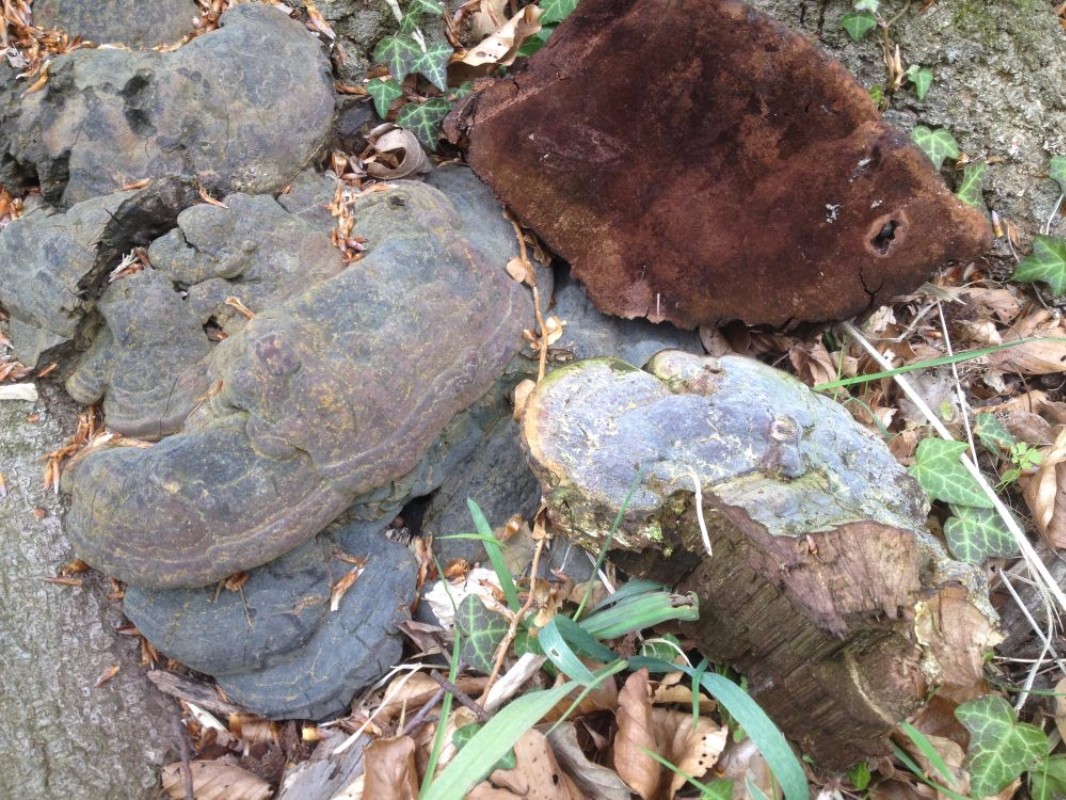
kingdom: Fungi
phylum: Basidiomycota
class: Agaricomycetes
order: Polyporales
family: Polyporaceae
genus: Ganoderma
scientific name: Ganoderma pfeifferi
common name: kobberrød lakporesvamp
